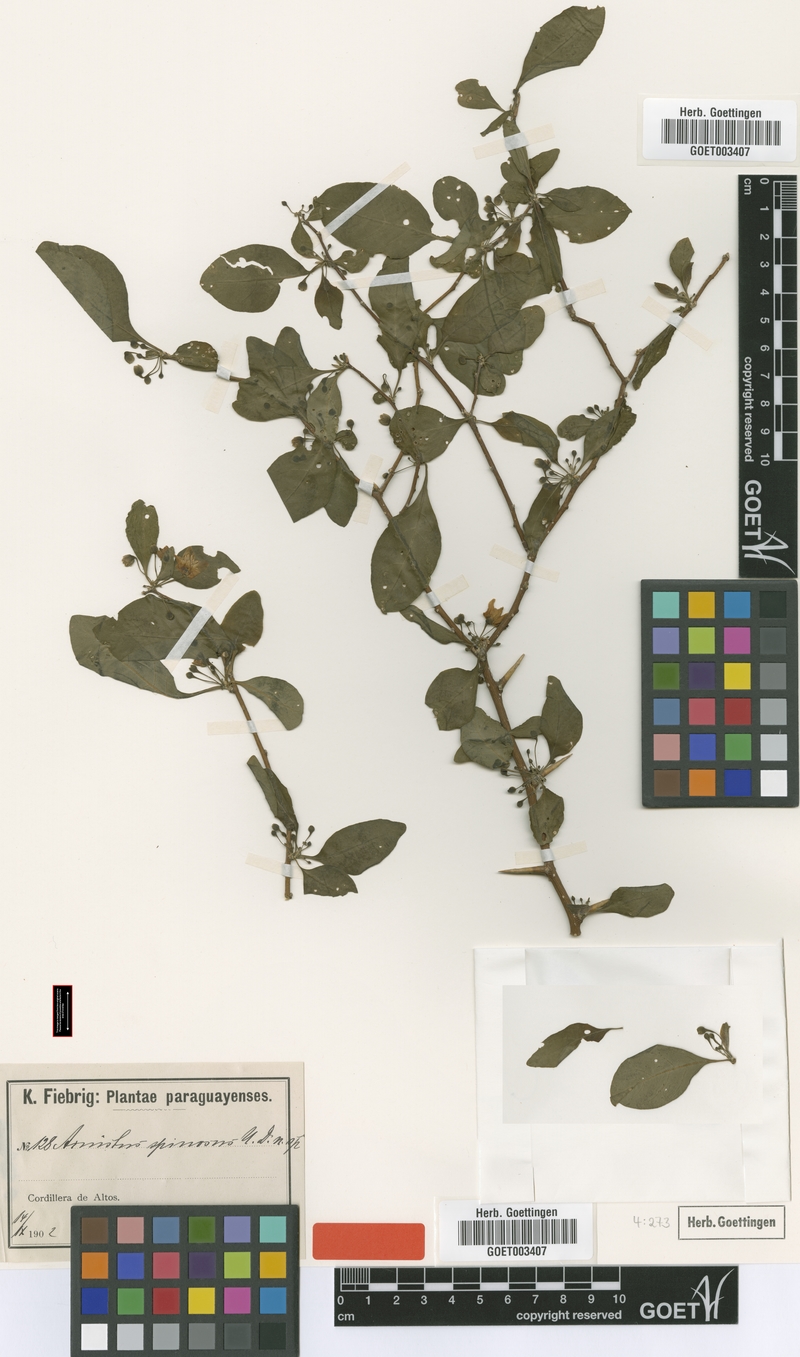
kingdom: Plantae
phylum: Tracheophyta
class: Magnoliopsida
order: Solanales
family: Solanaceae
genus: Vassobia
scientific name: Vassobia breviflora
